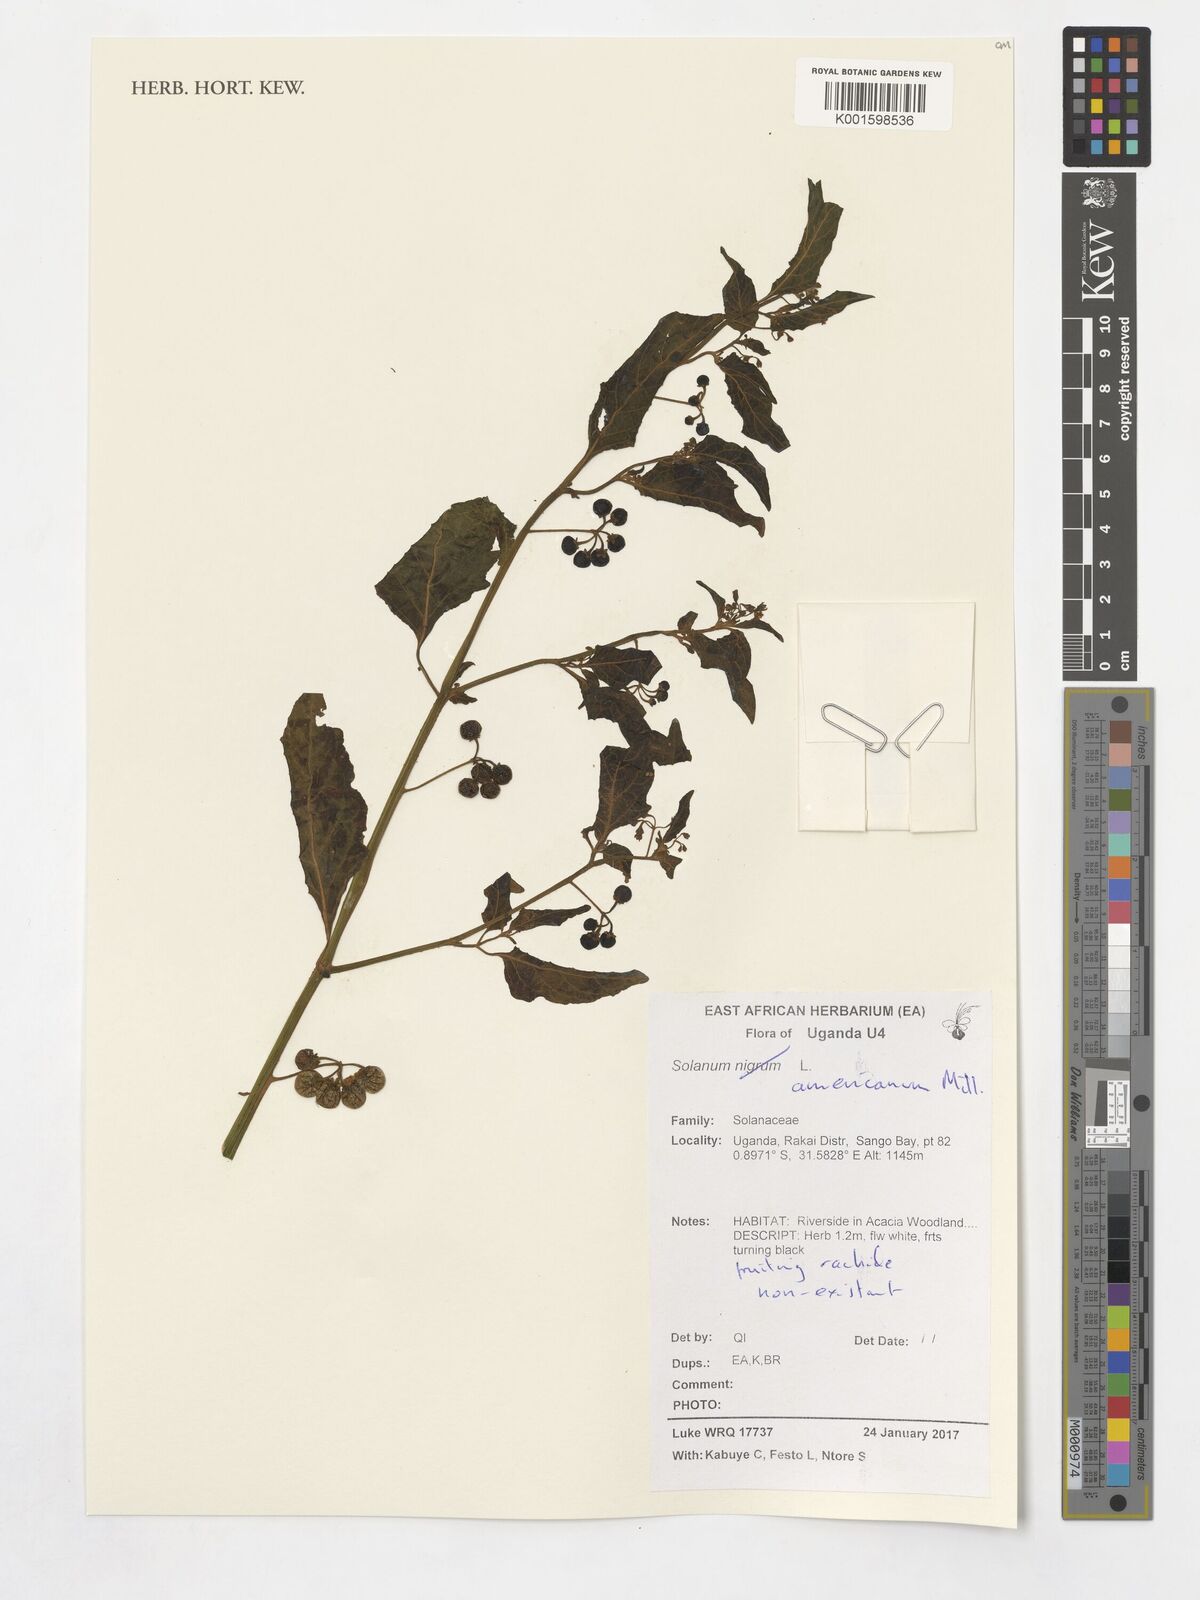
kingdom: Plantae
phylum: Tracheophyta
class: Magnoliopsida
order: Solanales
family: Solanaceae
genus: Solanum
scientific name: Solanum americanum
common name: American black nightshade
